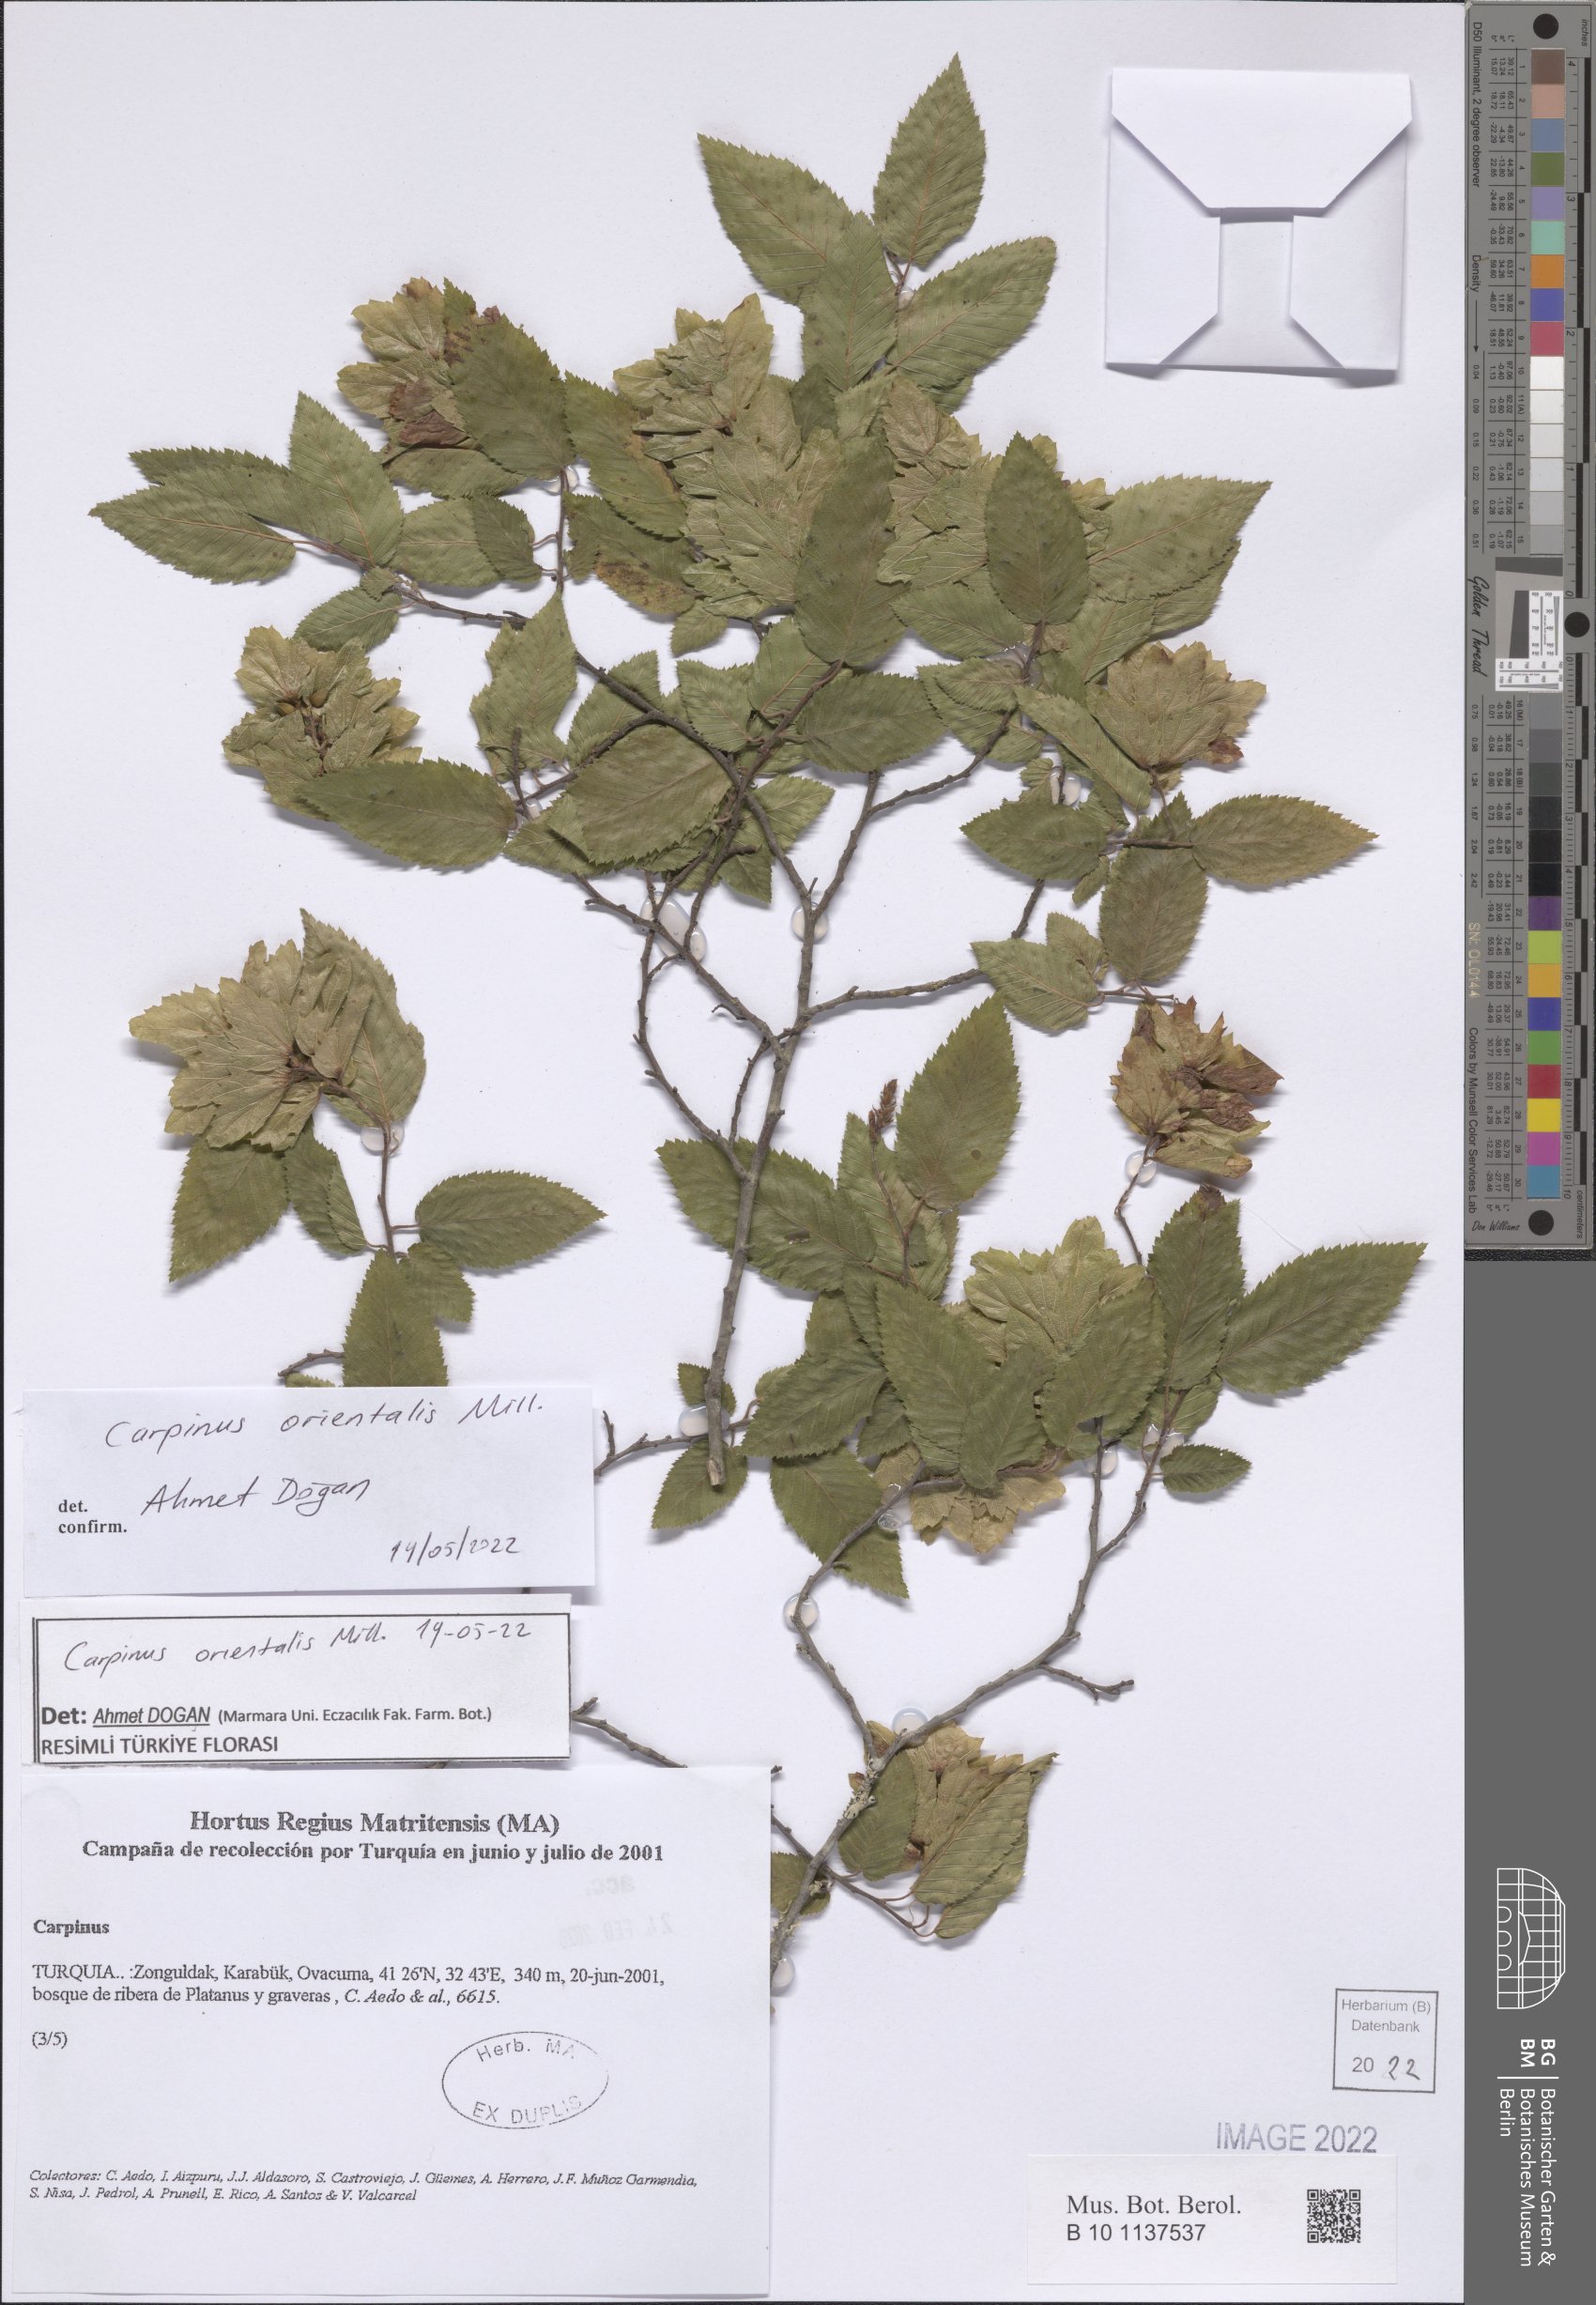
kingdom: Plantae
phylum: Tracheophyta
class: Magnoliopsida
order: Fagales
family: Betulaceae
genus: Carpinus
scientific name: Carpinus orientalis
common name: Eastern hornbeam
